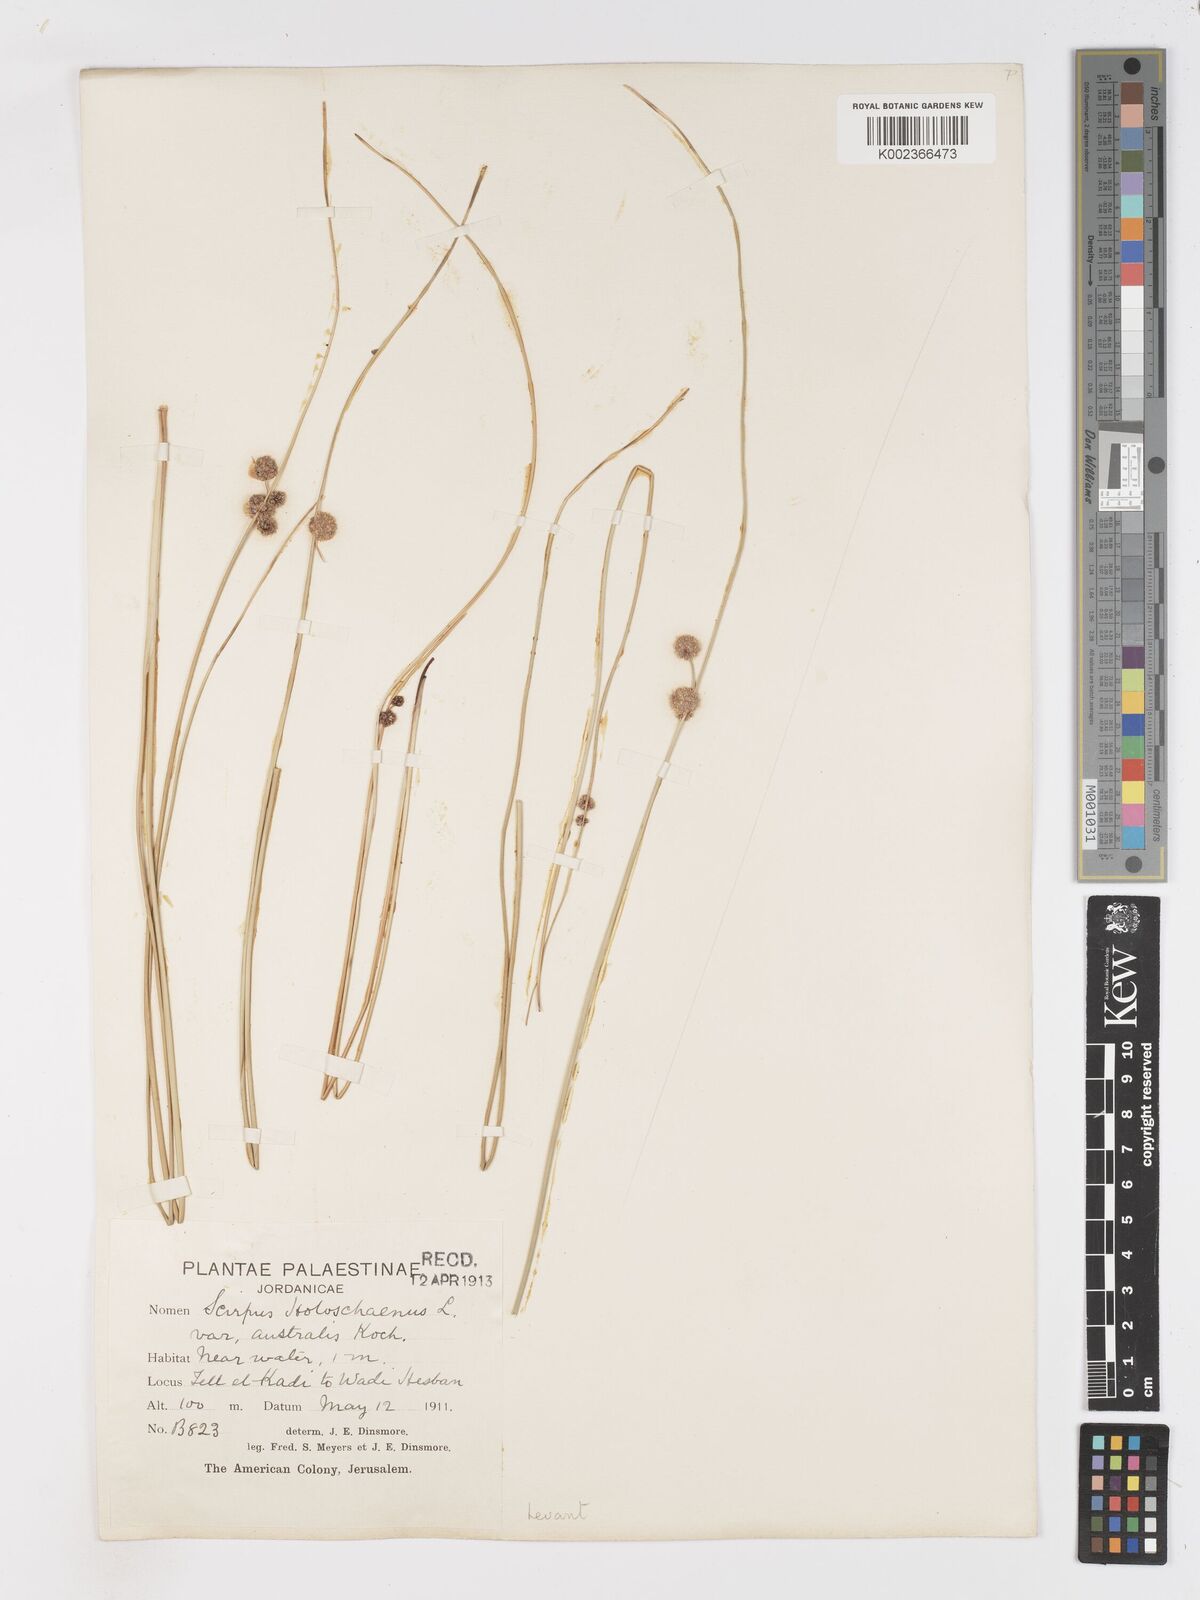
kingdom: Plantae
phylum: Tracheophyta
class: Liliopsida
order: Poales
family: Cyperaceae
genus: Scirpoides
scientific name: Scirpoides holoschoenus
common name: Round-headed club-rush
